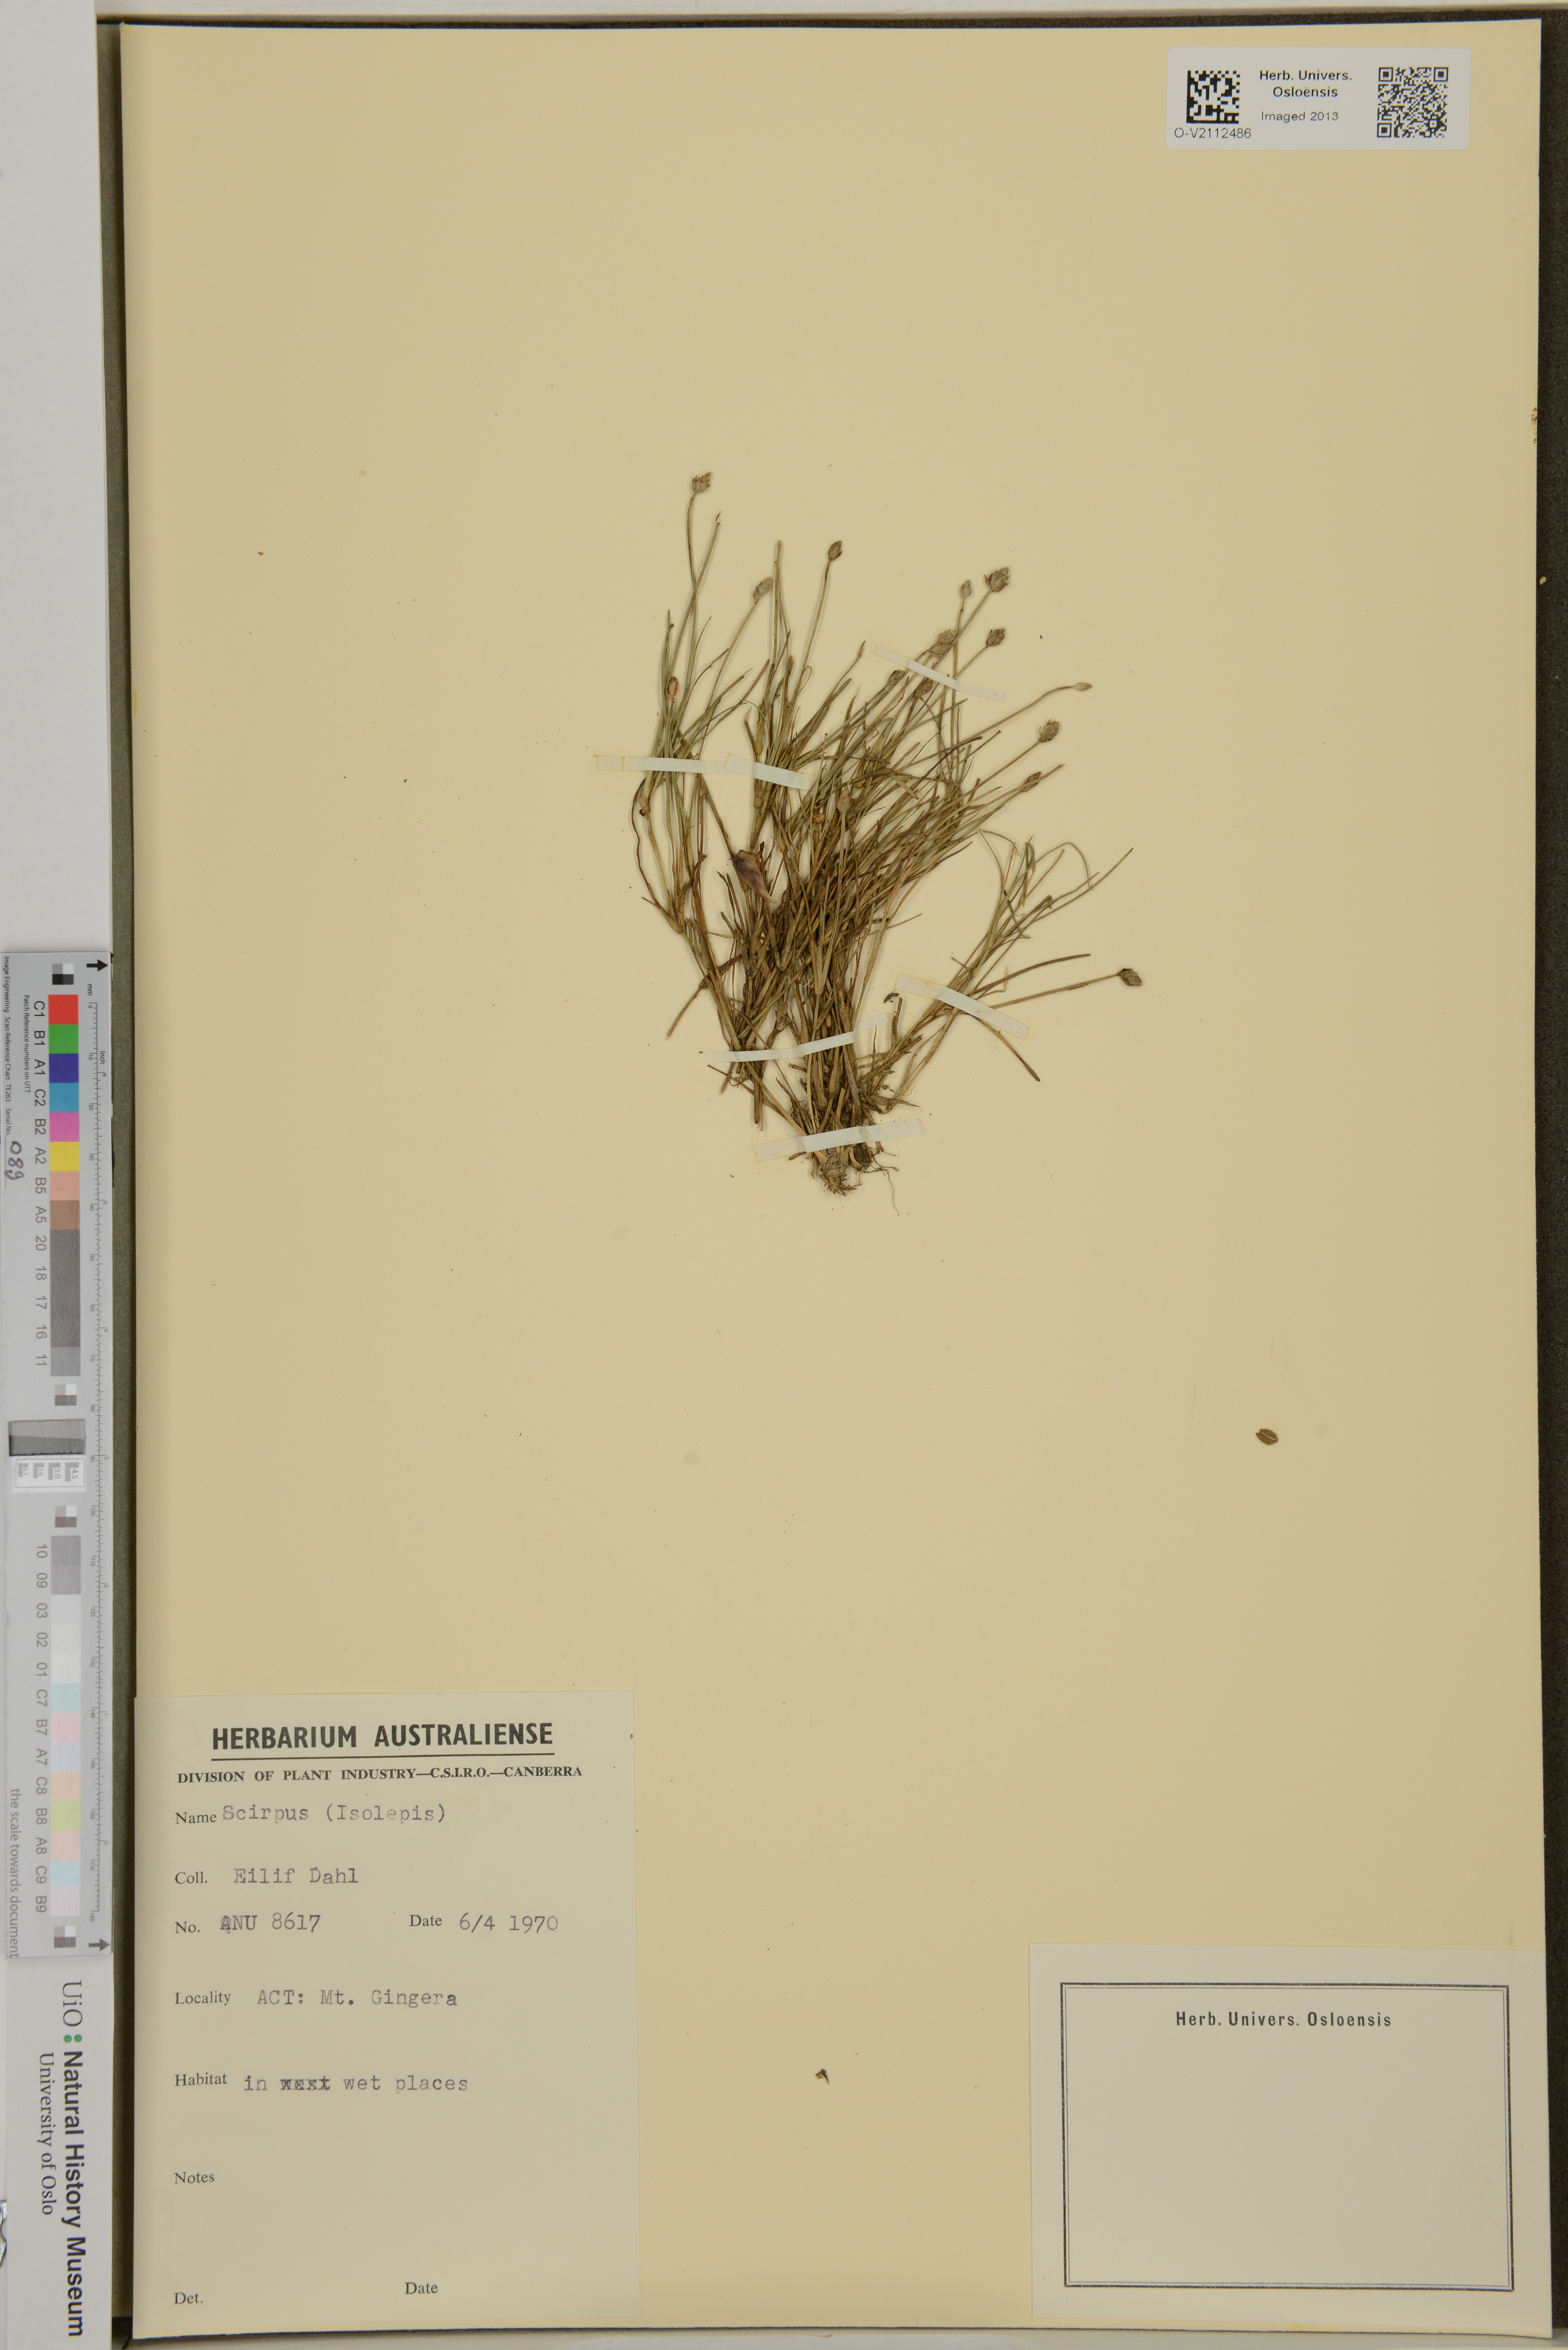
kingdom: Plantae
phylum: Tracheophyta
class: Liliopsida
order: Poales
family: Cyperaceae
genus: Cyperus
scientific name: Cyperus isolepis
